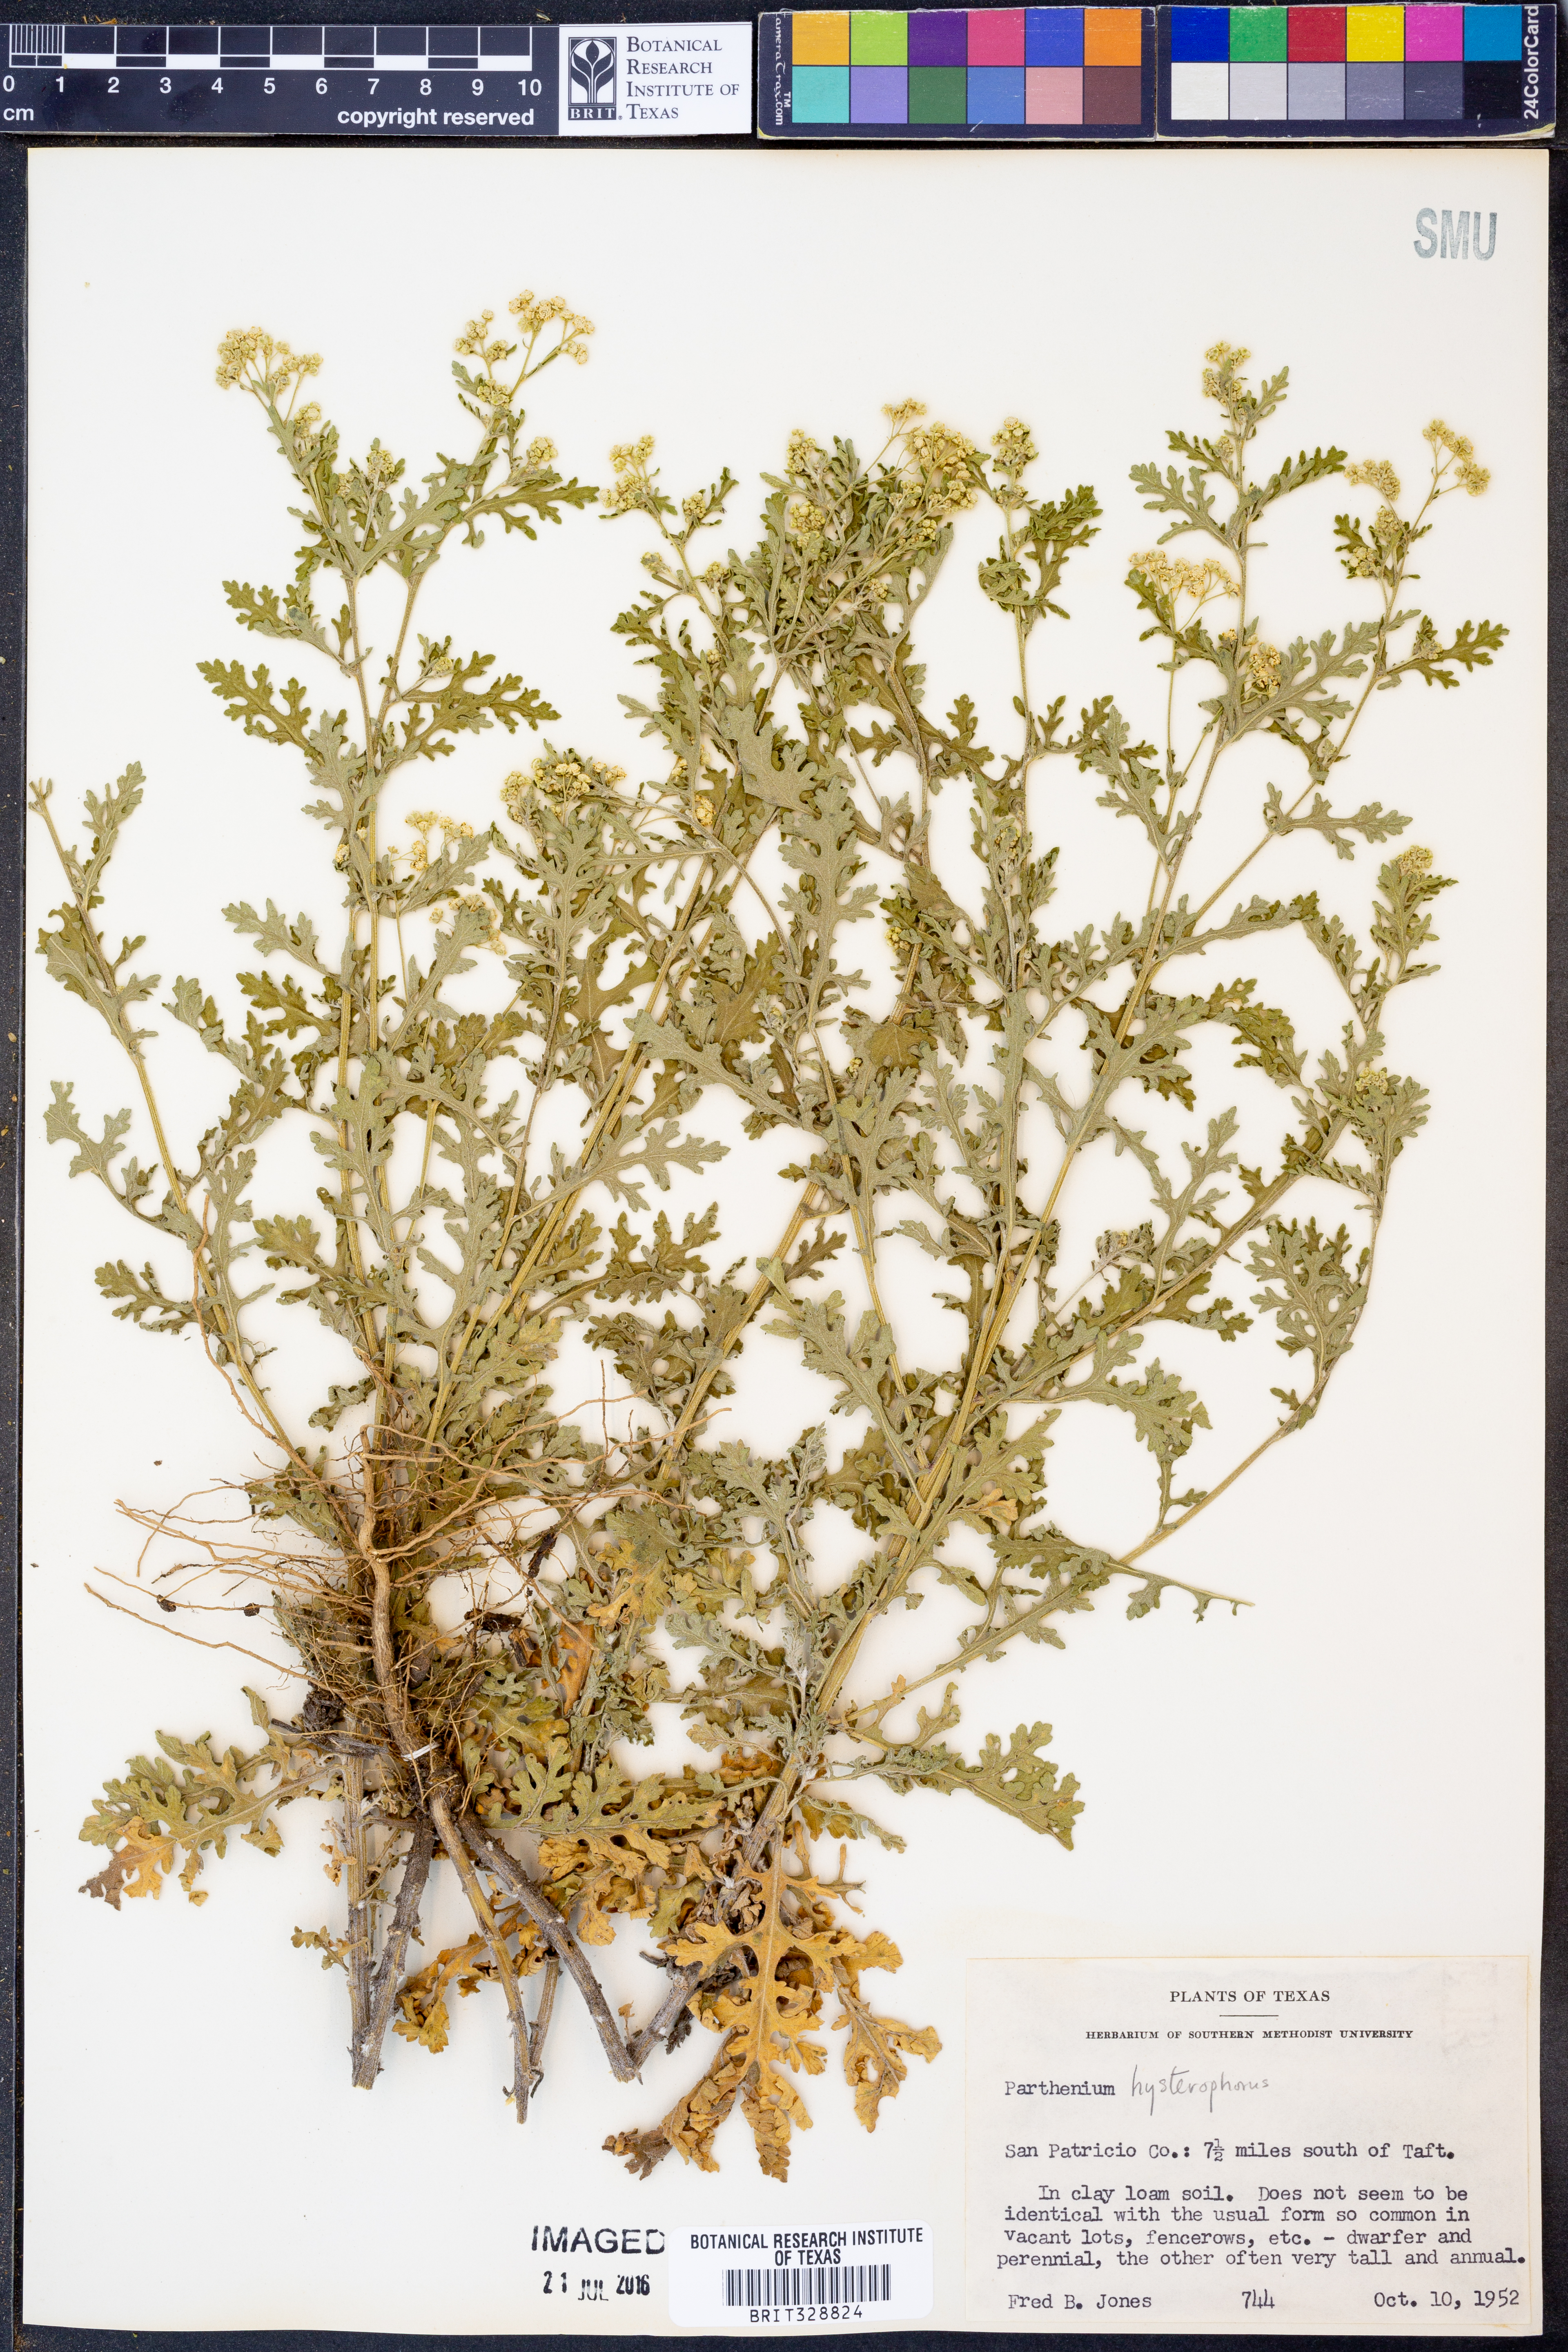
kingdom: Plantae
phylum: Tracheophyta
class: Magnoliopsida
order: Asterales
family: Asteraceae
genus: Parthenium
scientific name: Parthenium hysterophorus
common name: Santa maria feverfew
